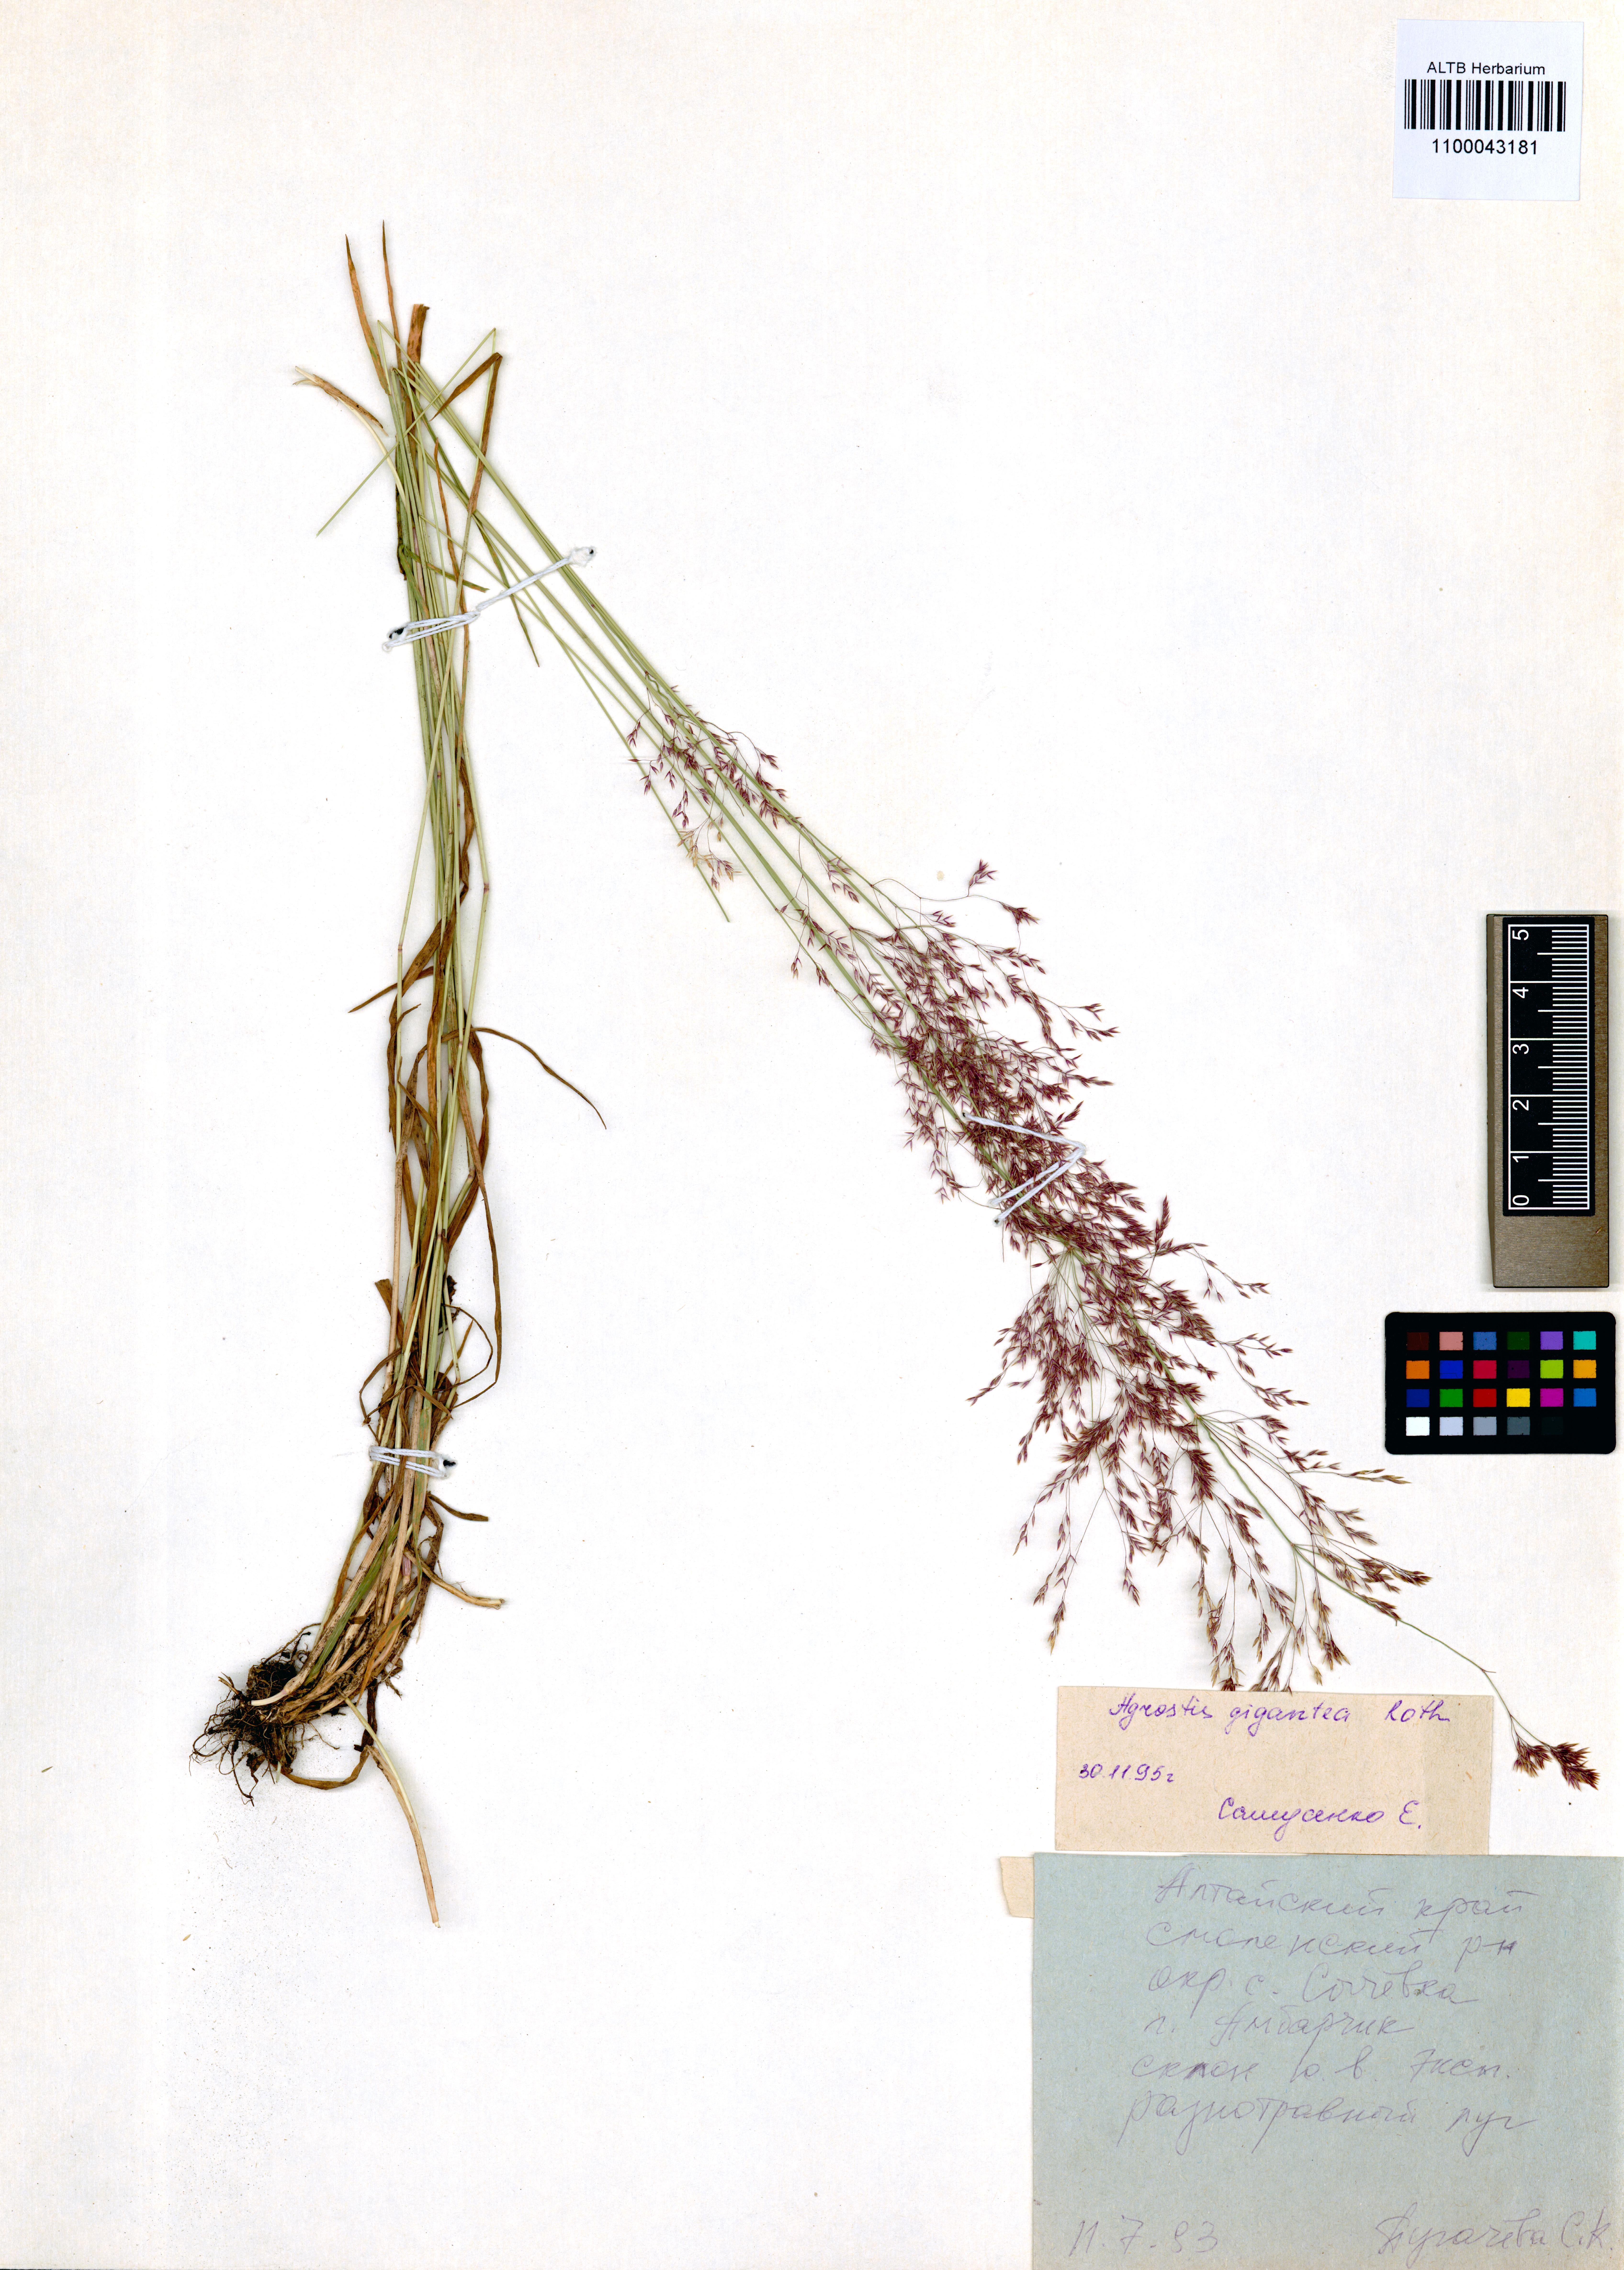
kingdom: Plantae
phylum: Tracheophyta
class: Liliopsida
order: Poales
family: Poaceae
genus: Agrostis
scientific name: Agrostis clavata
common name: Clavate bent
